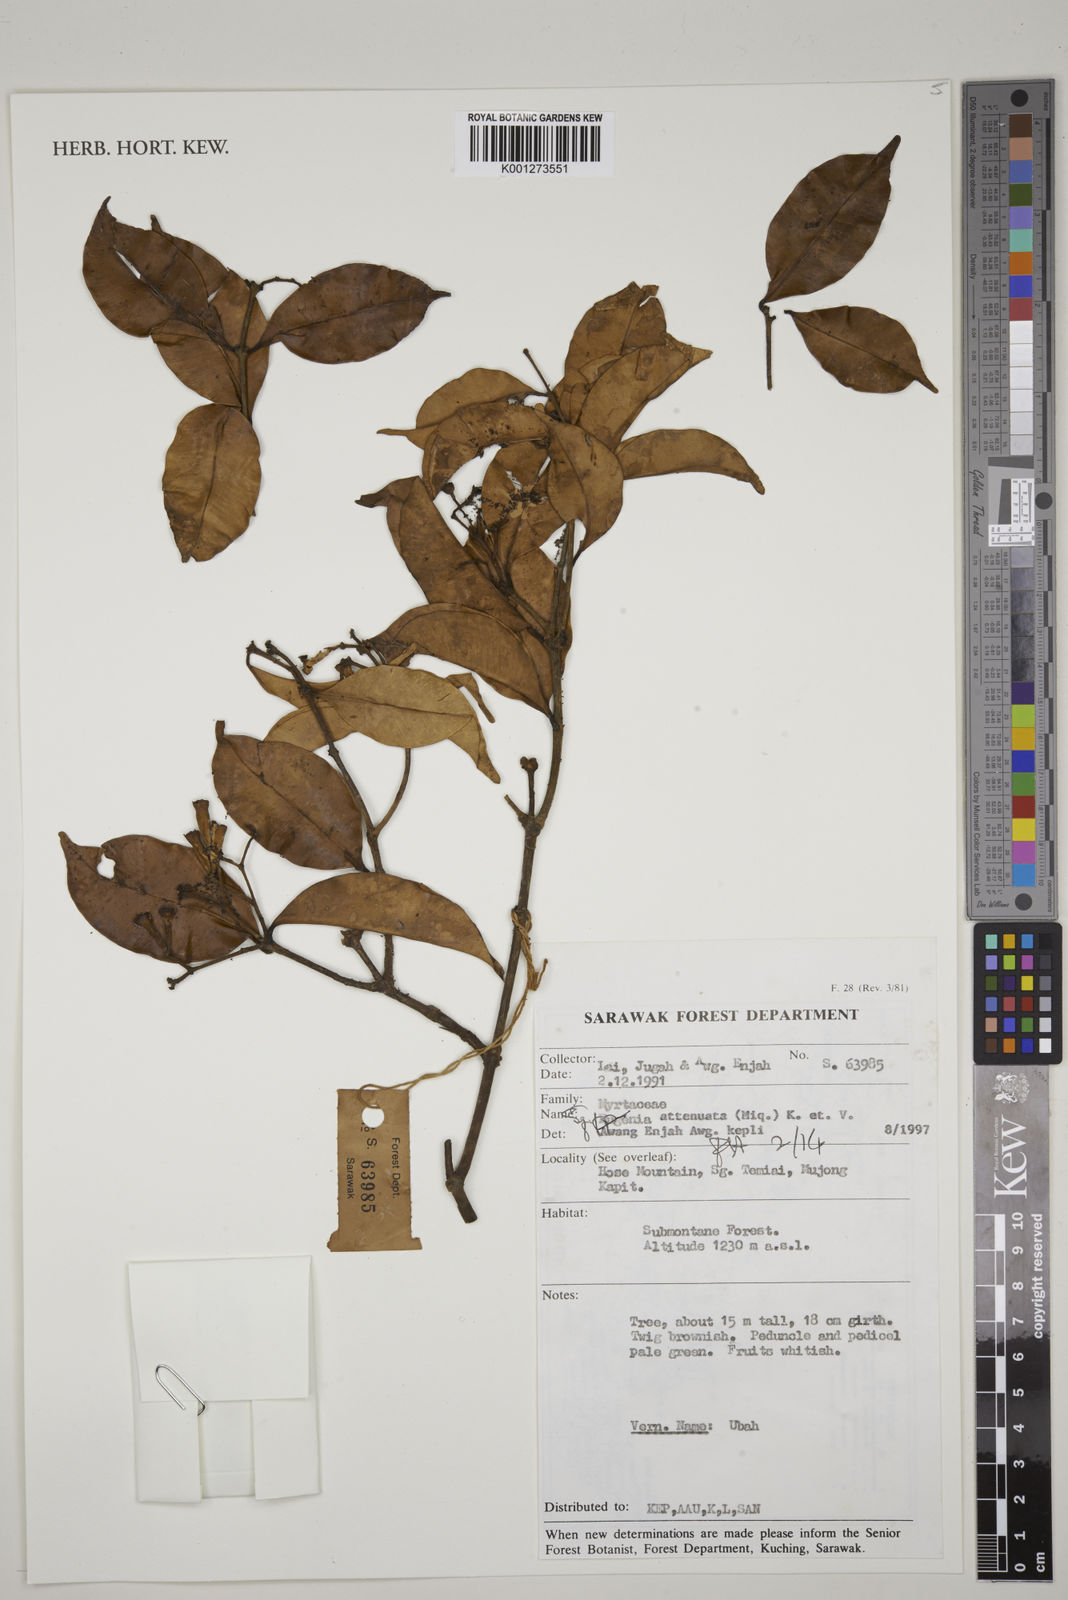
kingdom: Plantae
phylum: Tracheophyta
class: Magnoliopsida
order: Myrtales
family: Myrtaceae
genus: Syzygium
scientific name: Syzygium attenuatum
